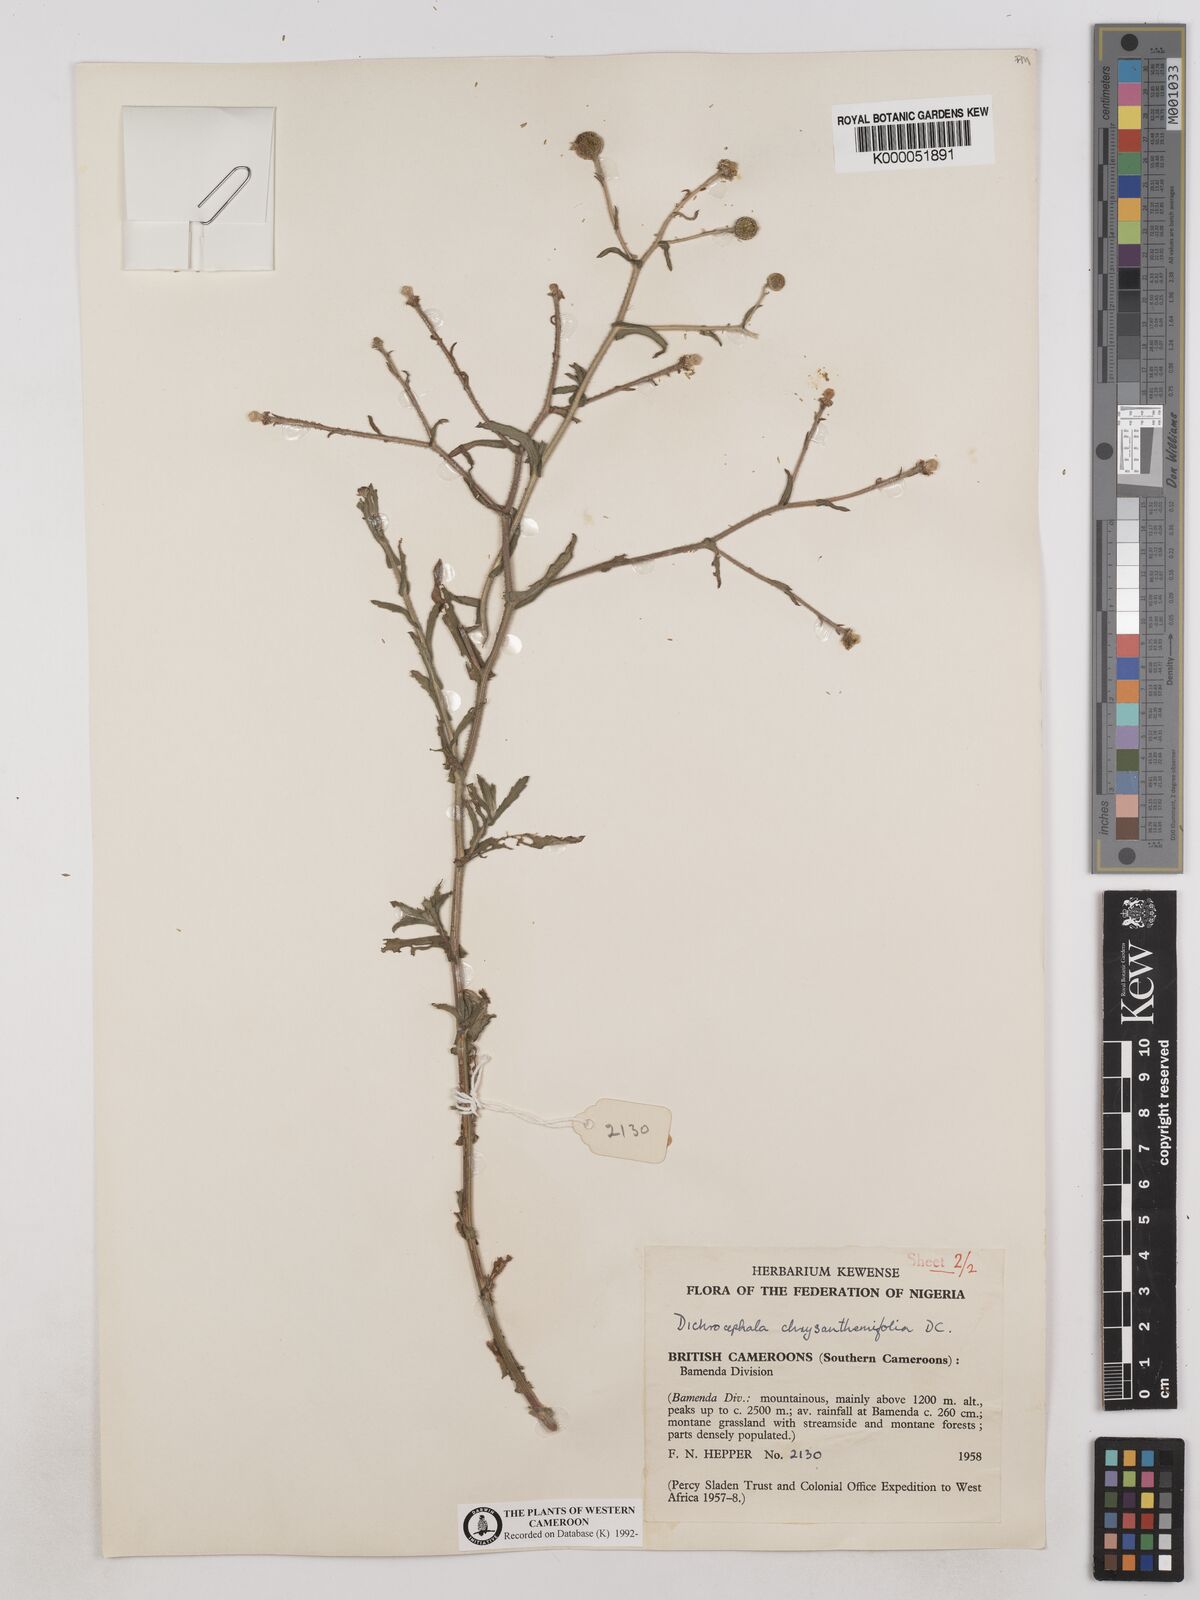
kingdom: Plantae
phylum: Tracheophyta
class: Magnoliopsida
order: Asterales
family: Asteraceae
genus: Dichrocephala
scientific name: Dichrocephala chrysanthemifolia
